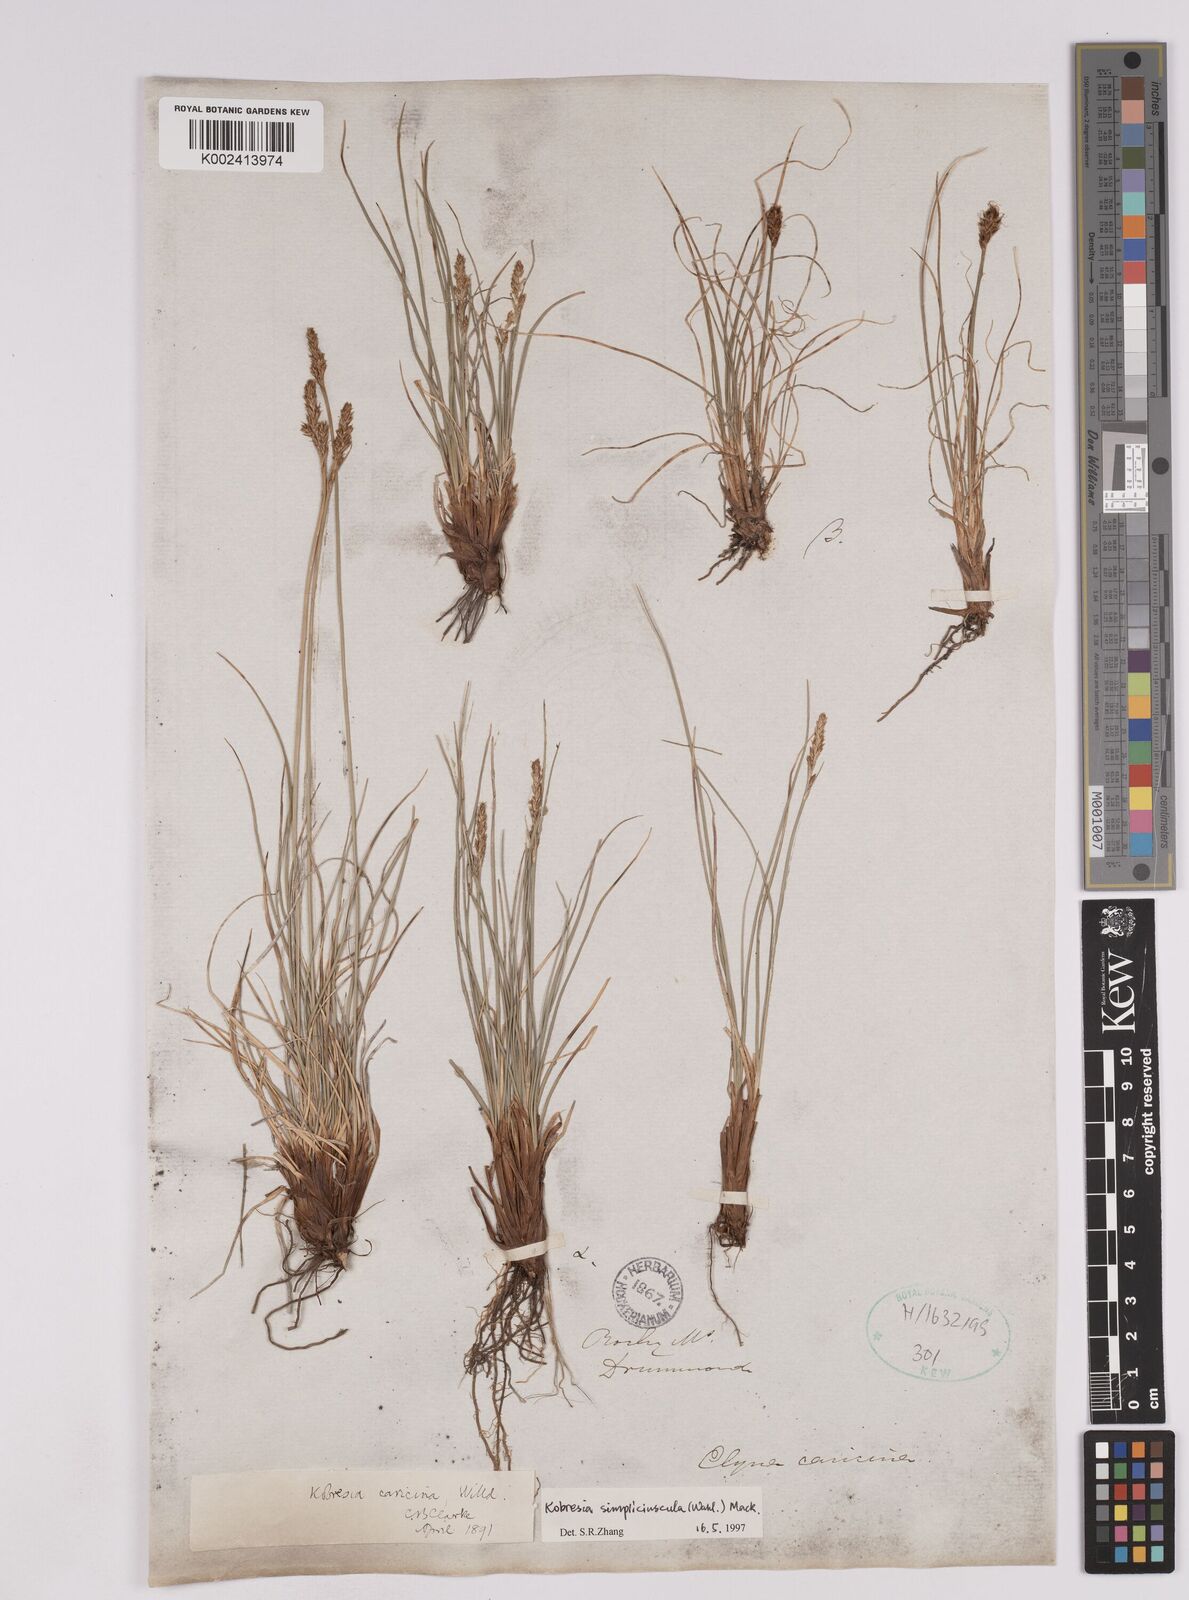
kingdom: Plantae
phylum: Tracheophyta
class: Liliopsida
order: Poales
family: Cyperaceae
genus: Carex
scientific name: Carex simpliciuscula
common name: Simple bog sedge
